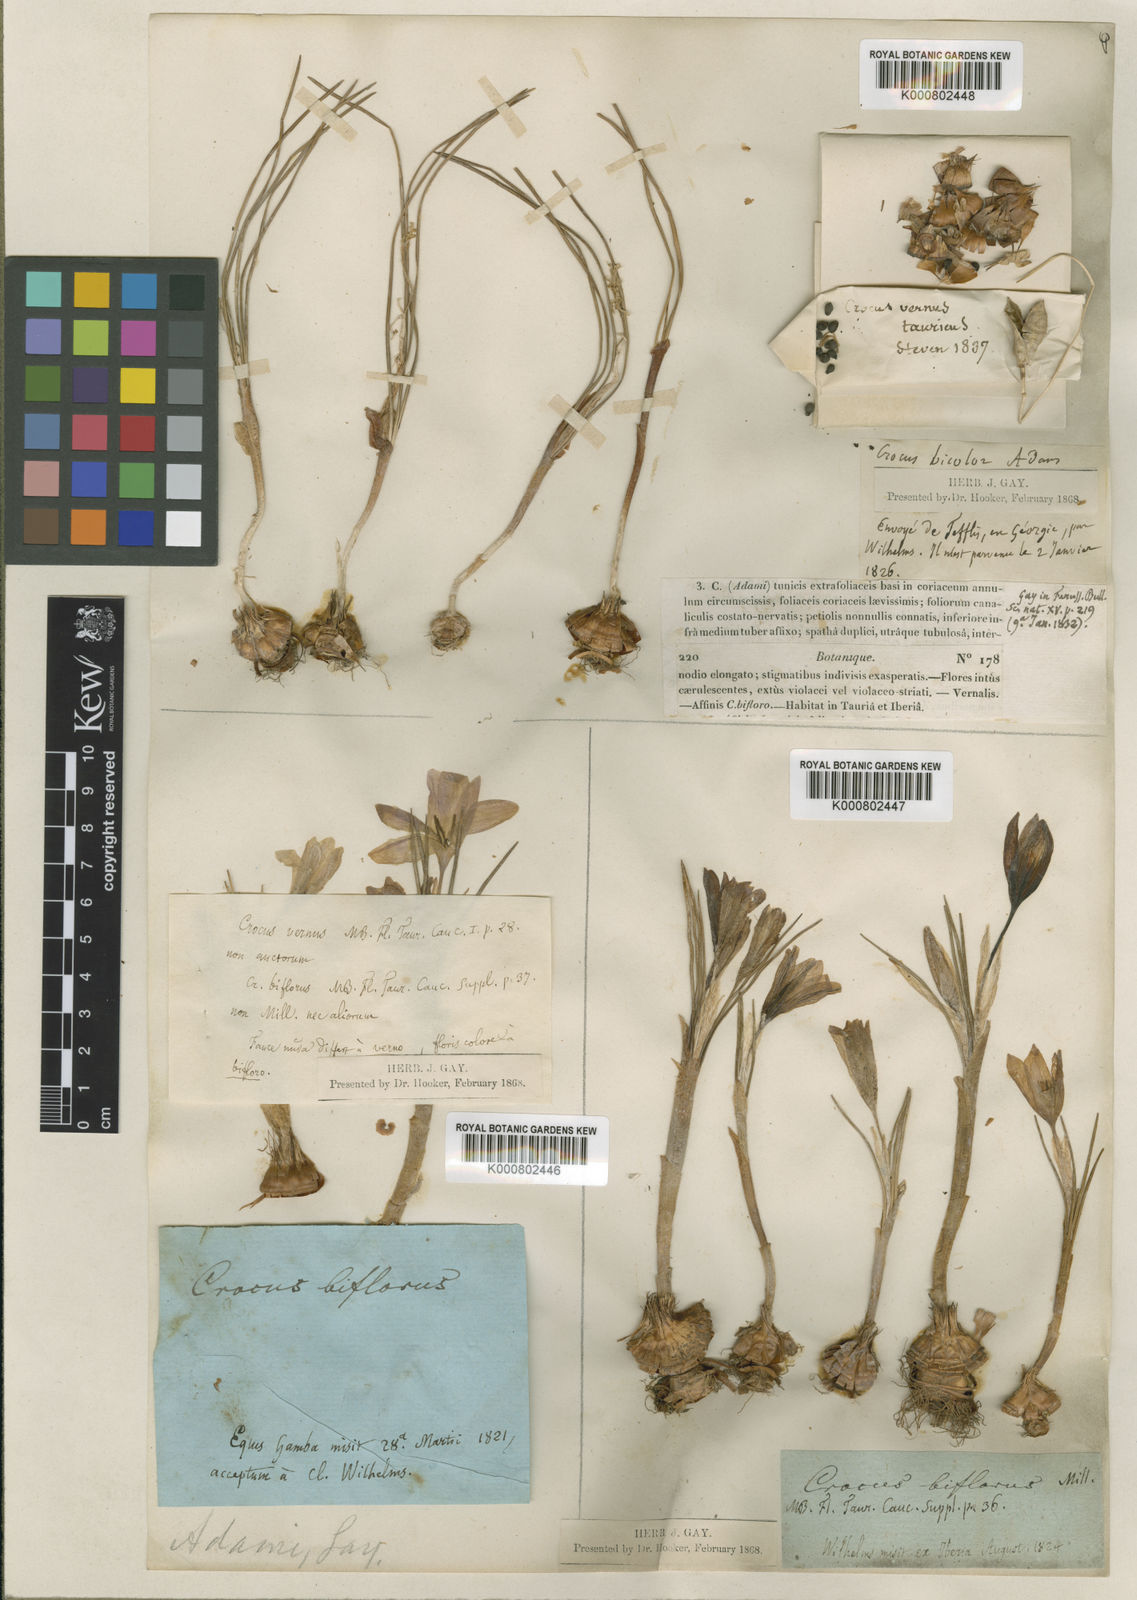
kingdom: Plantae
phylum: Tracheophyta
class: Liliopsida
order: Asparagales
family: Iridaceae
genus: Crocus
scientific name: Crocus biflorus
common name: Silvery crocus
